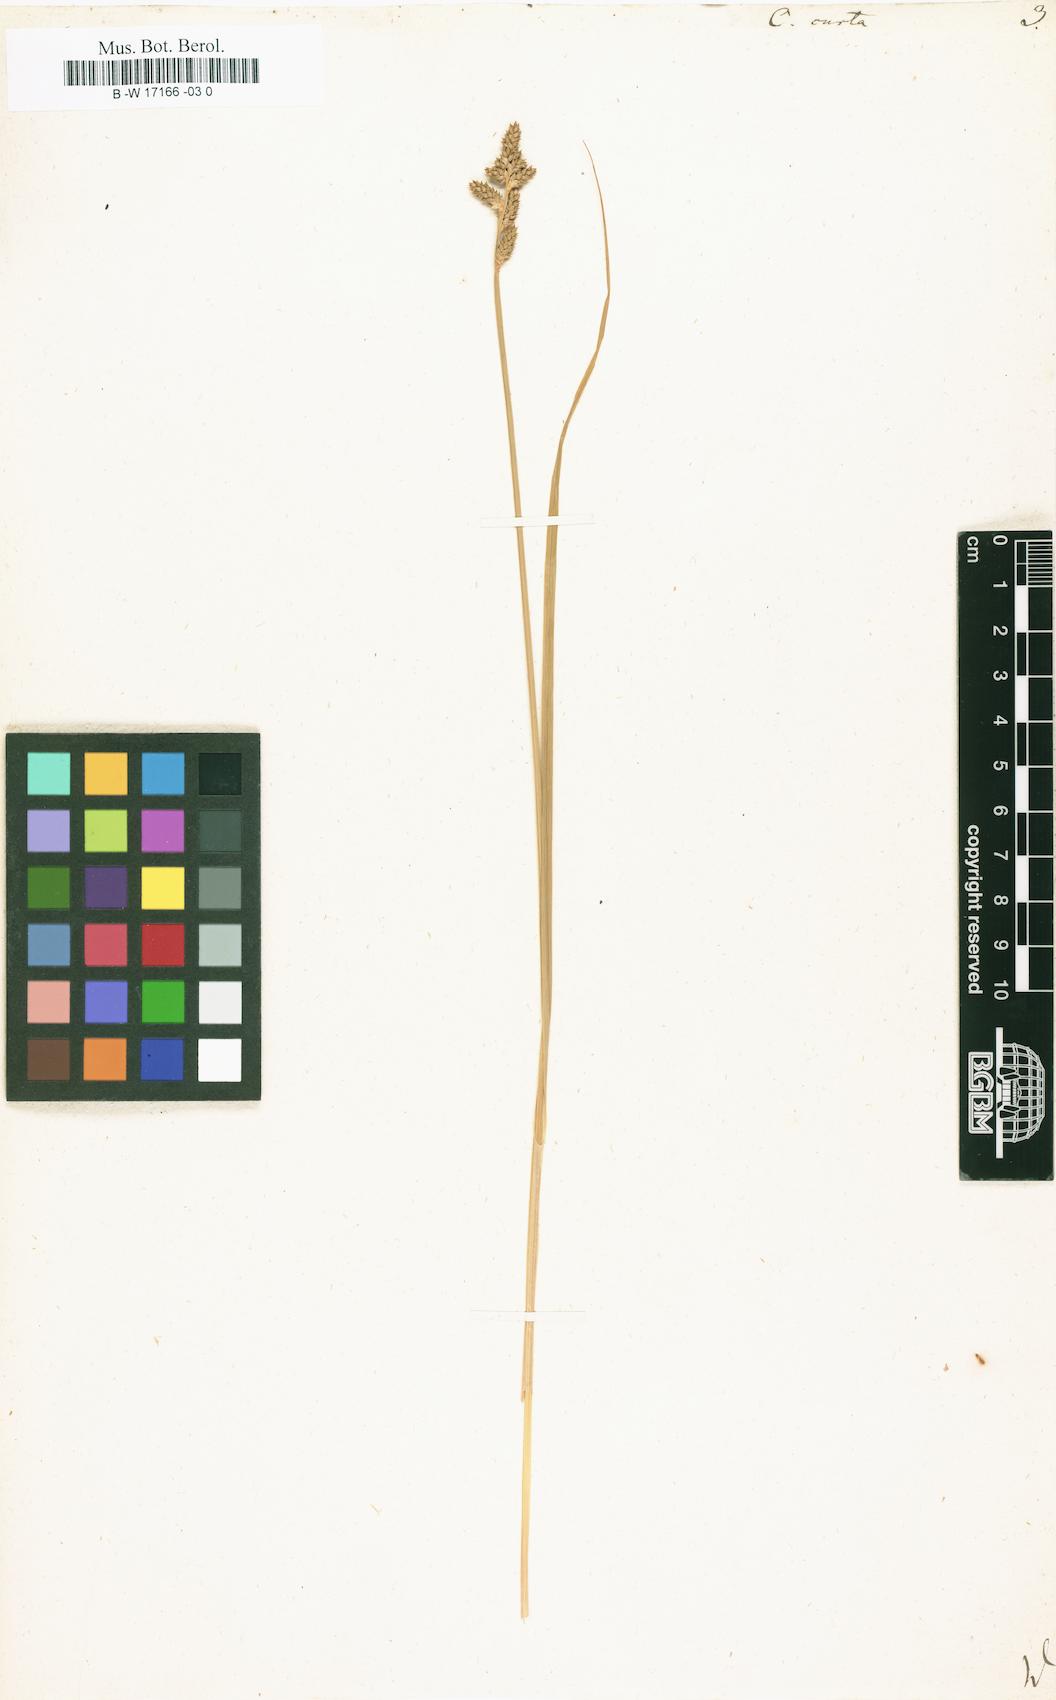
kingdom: Plantae
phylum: Tracheophyta
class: Liliopsida
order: Poales
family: Cyperaceae
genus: Carex
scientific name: Carex curta
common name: White sedge
